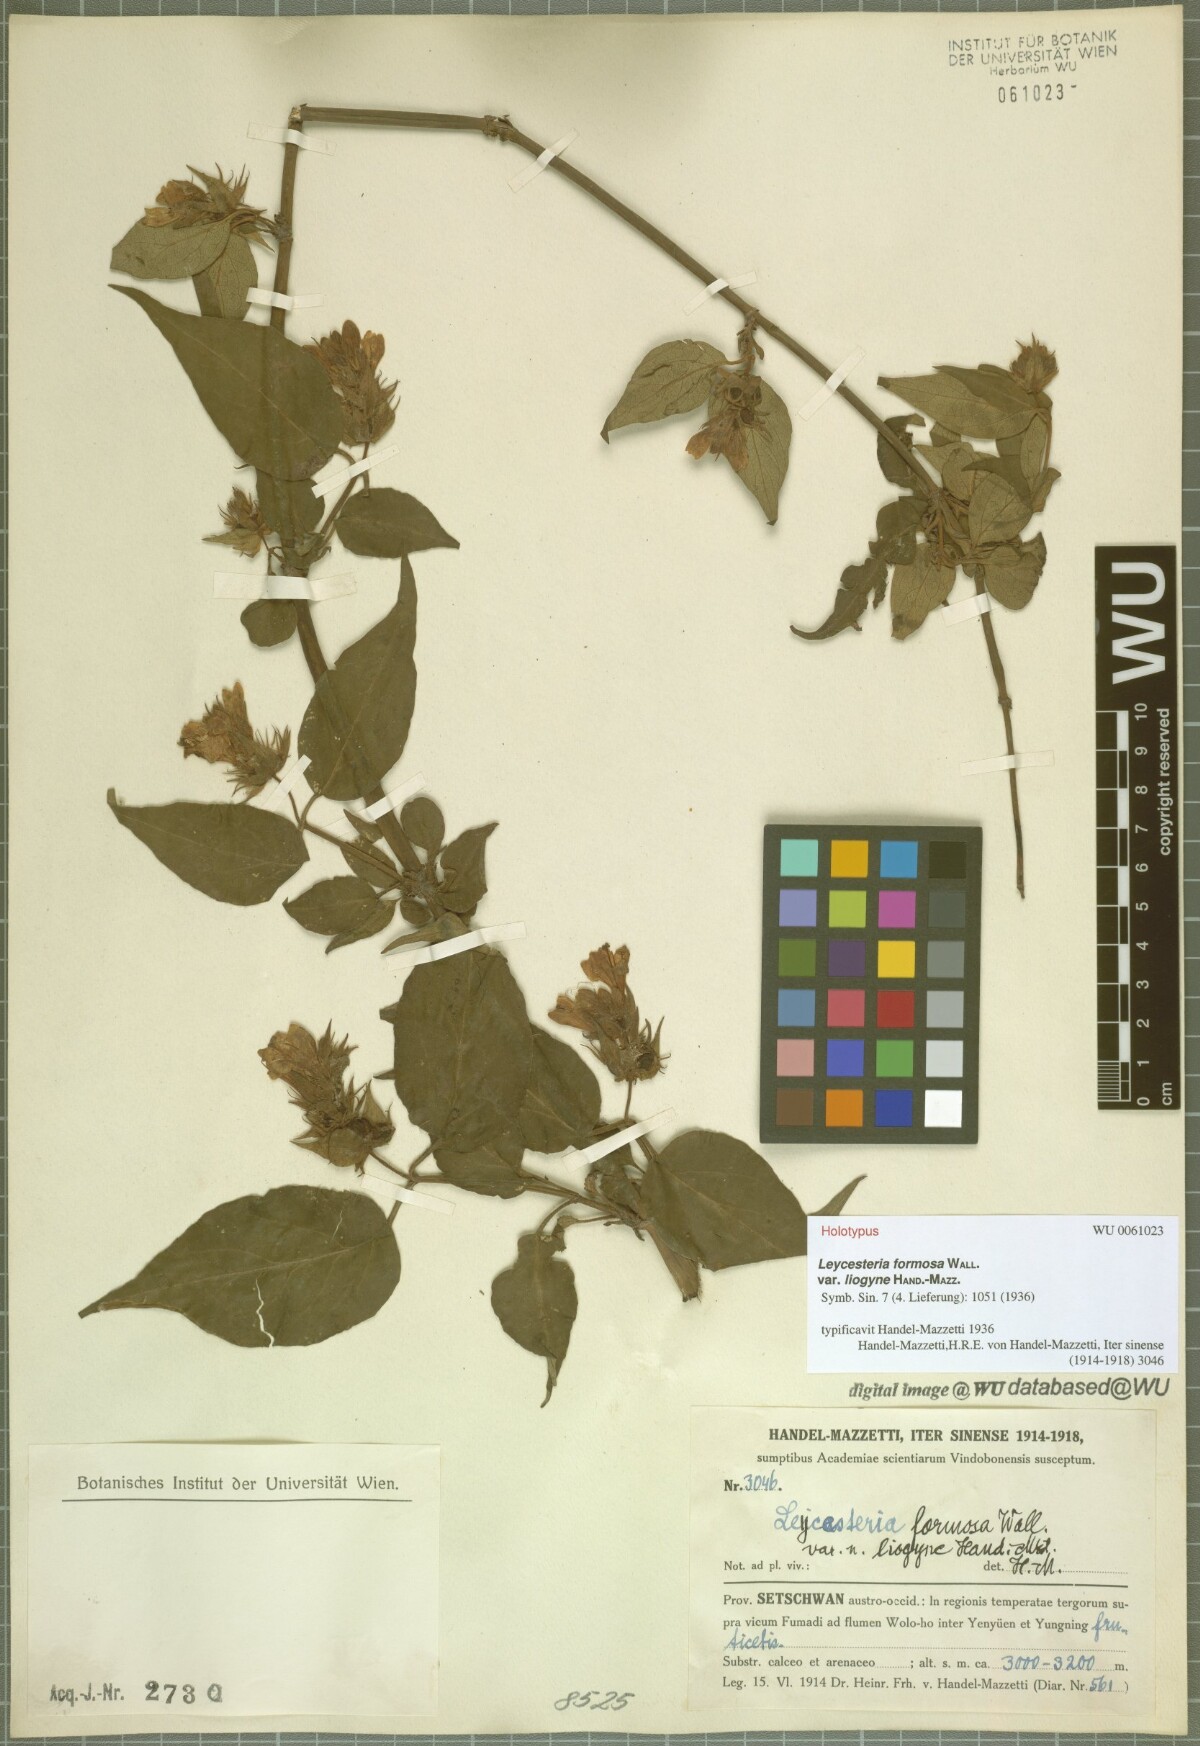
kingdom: Plantae
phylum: Tracheophyta
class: Magnoliopsida
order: Dipsacales
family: Caprifoliaceae
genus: Leycesteria
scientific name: Leycesteria formosa
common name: Himalayan honeysuckle
